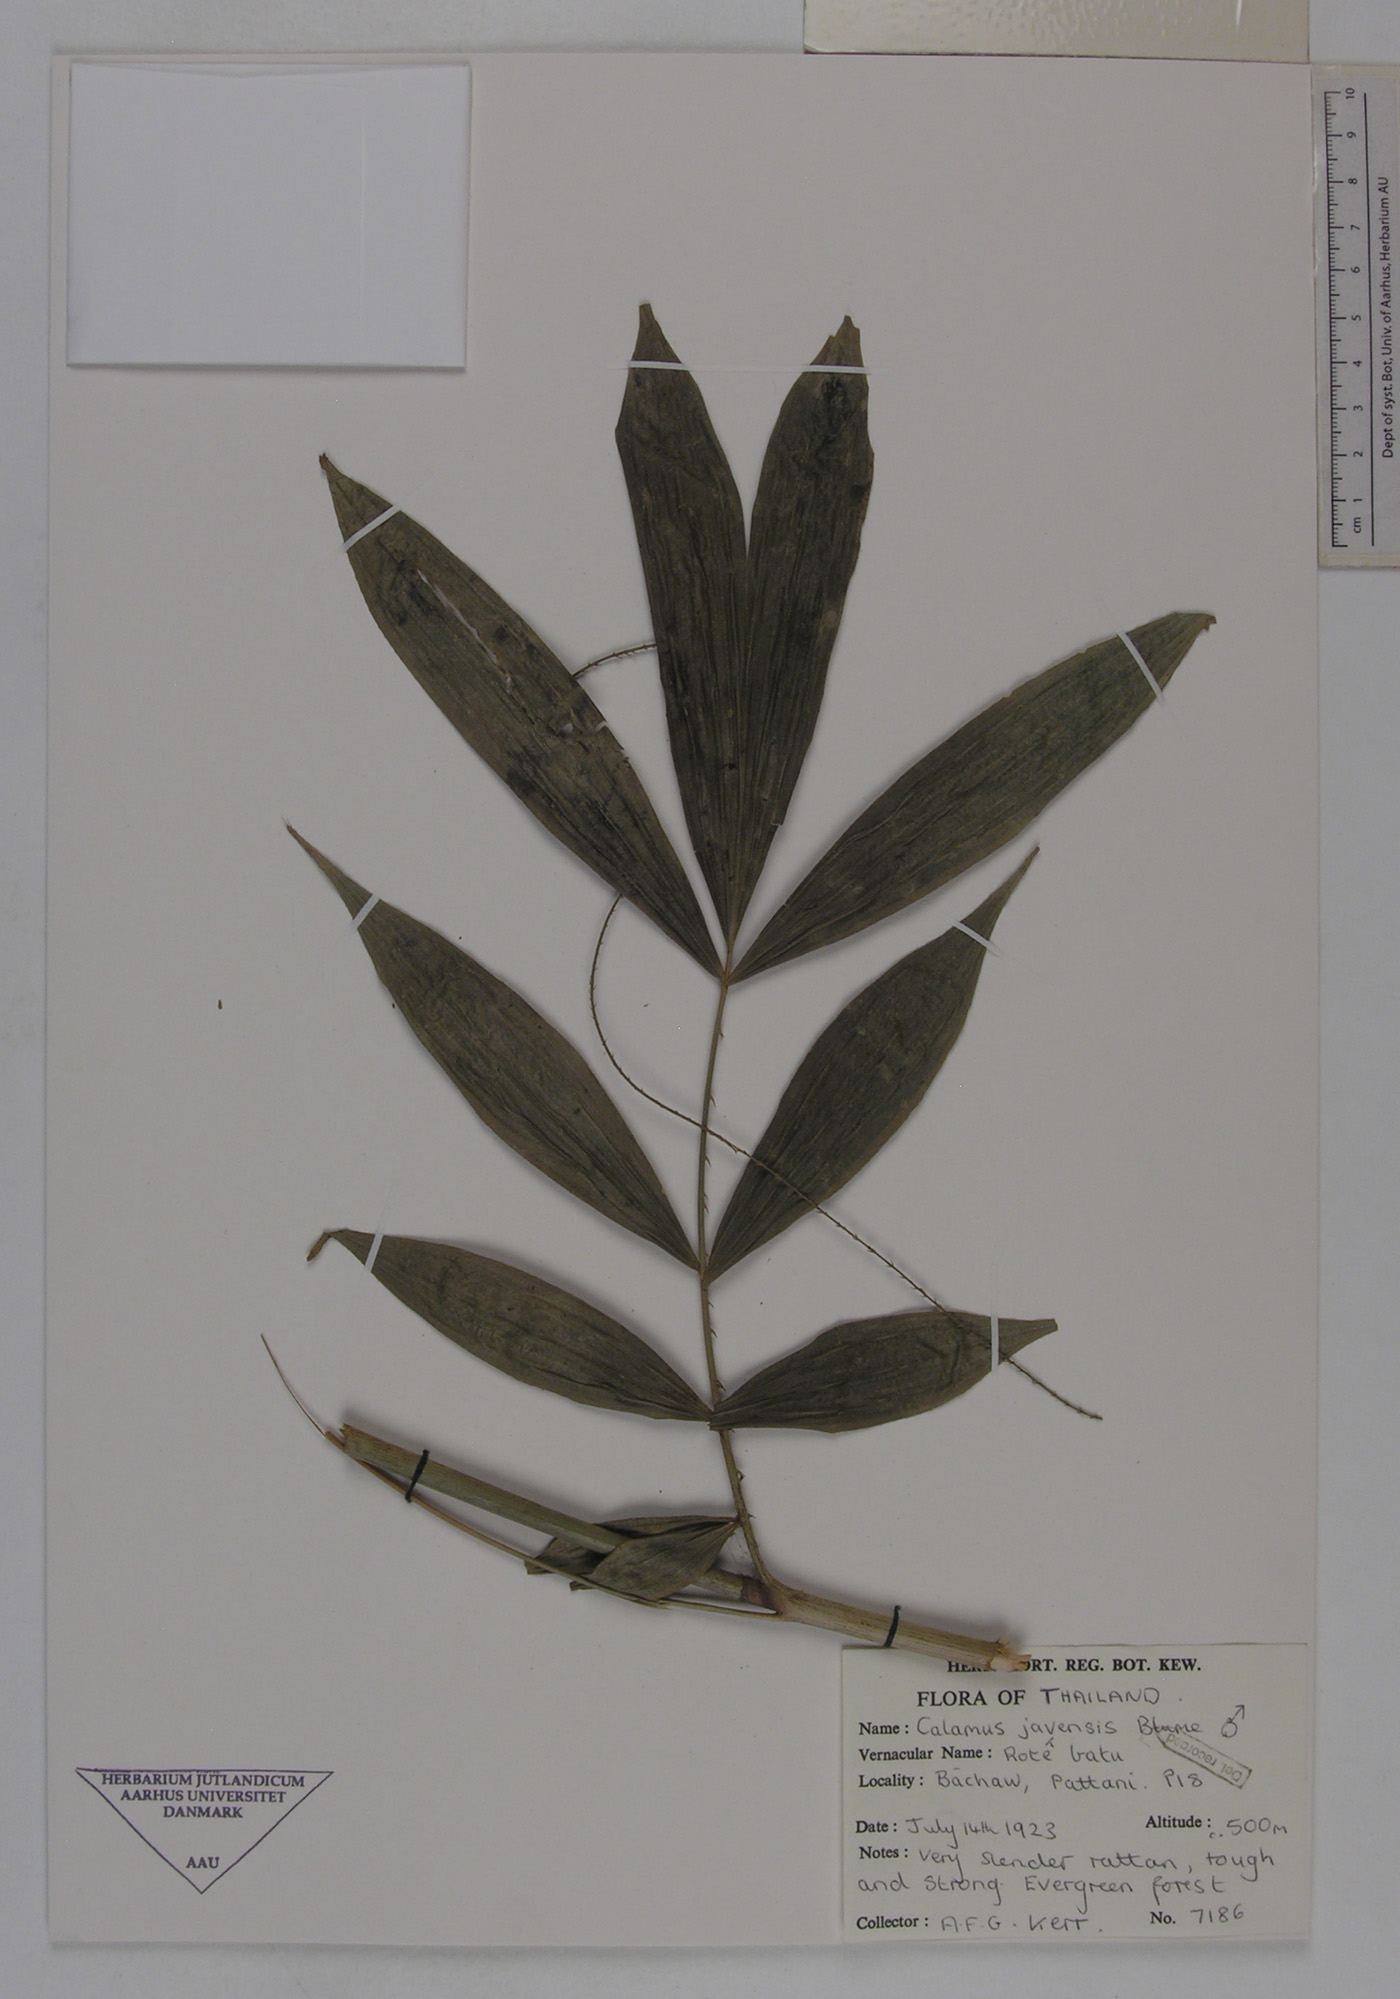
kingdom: Plantae
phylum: Tracheophyta
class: Liliopsida
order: Arecales
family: Arecaceae
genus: Calamus
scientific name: Calamus javensis
